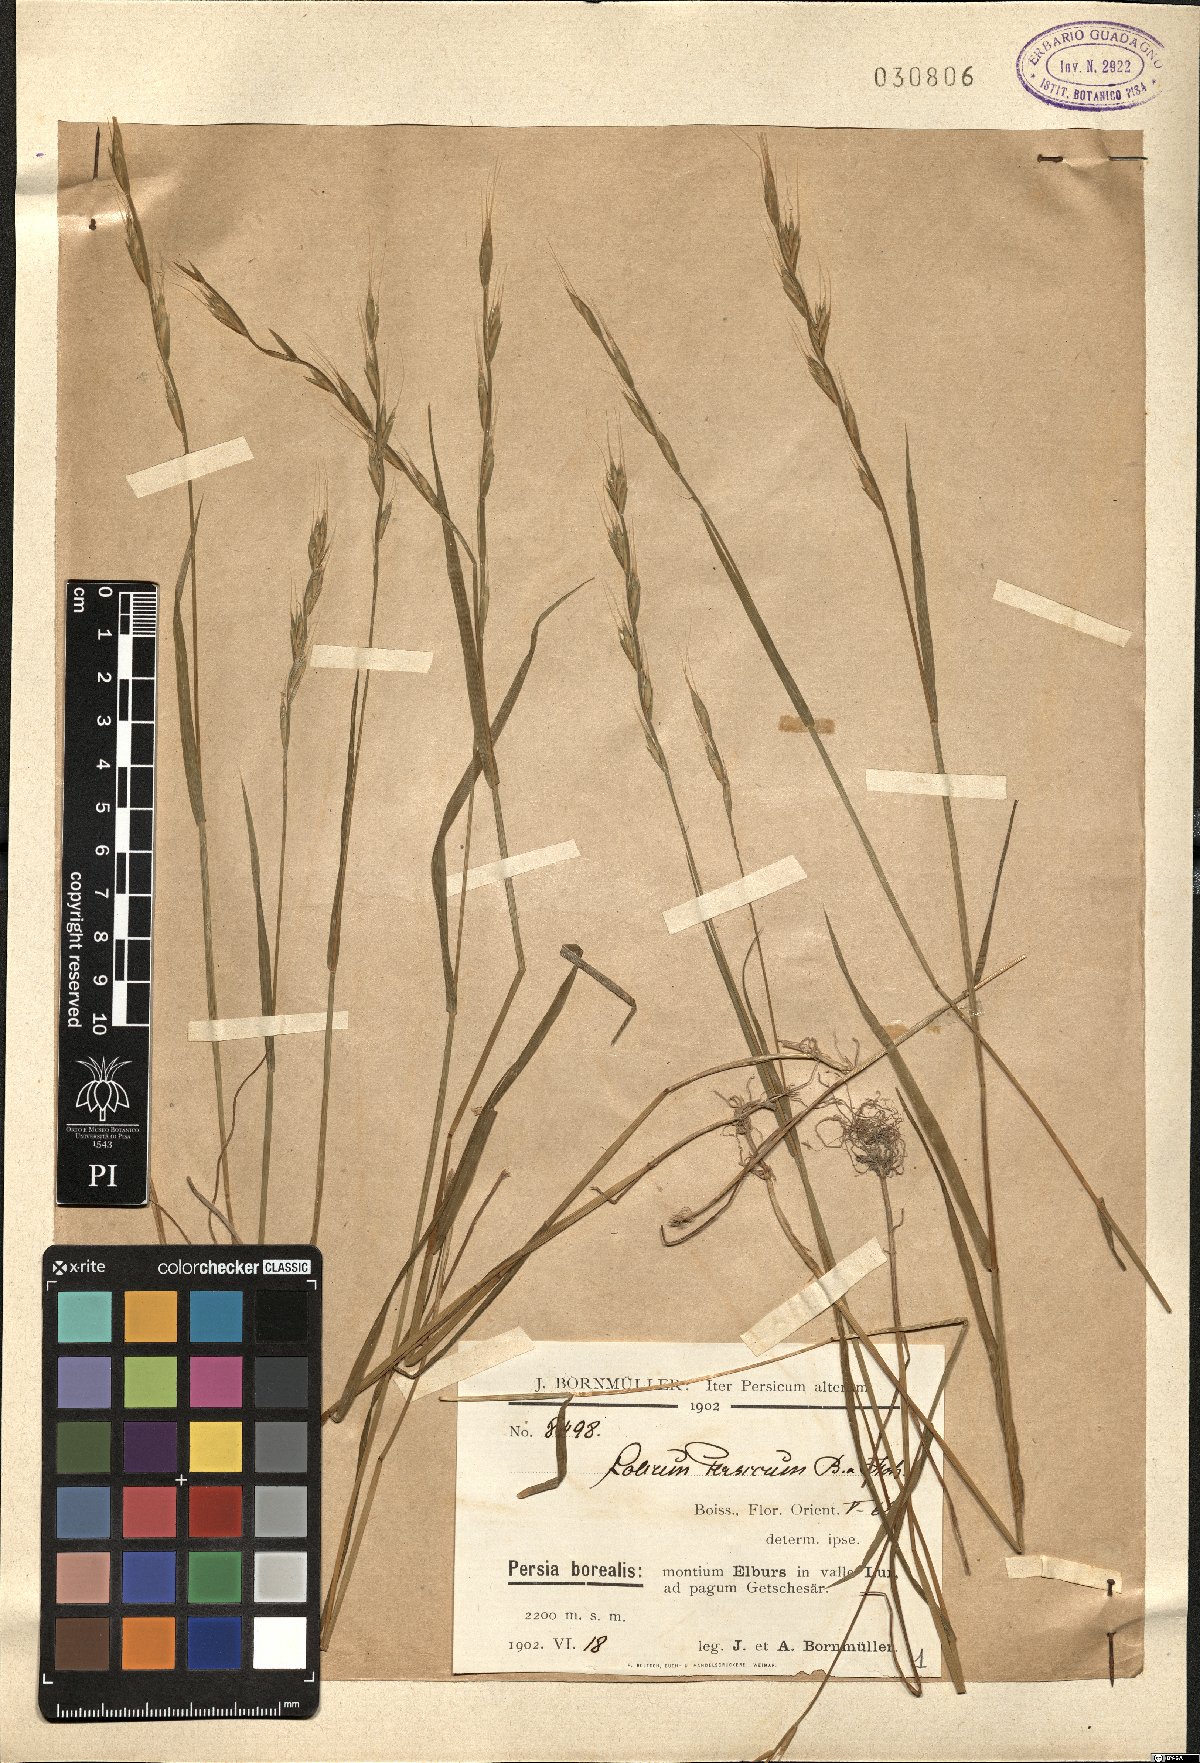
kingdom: Plantae
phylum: Tracheophyta
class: Liliopsida
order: Poales
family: Poaceae
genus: Lolium
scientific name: Lolium persicum
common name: Persian ryegrass
